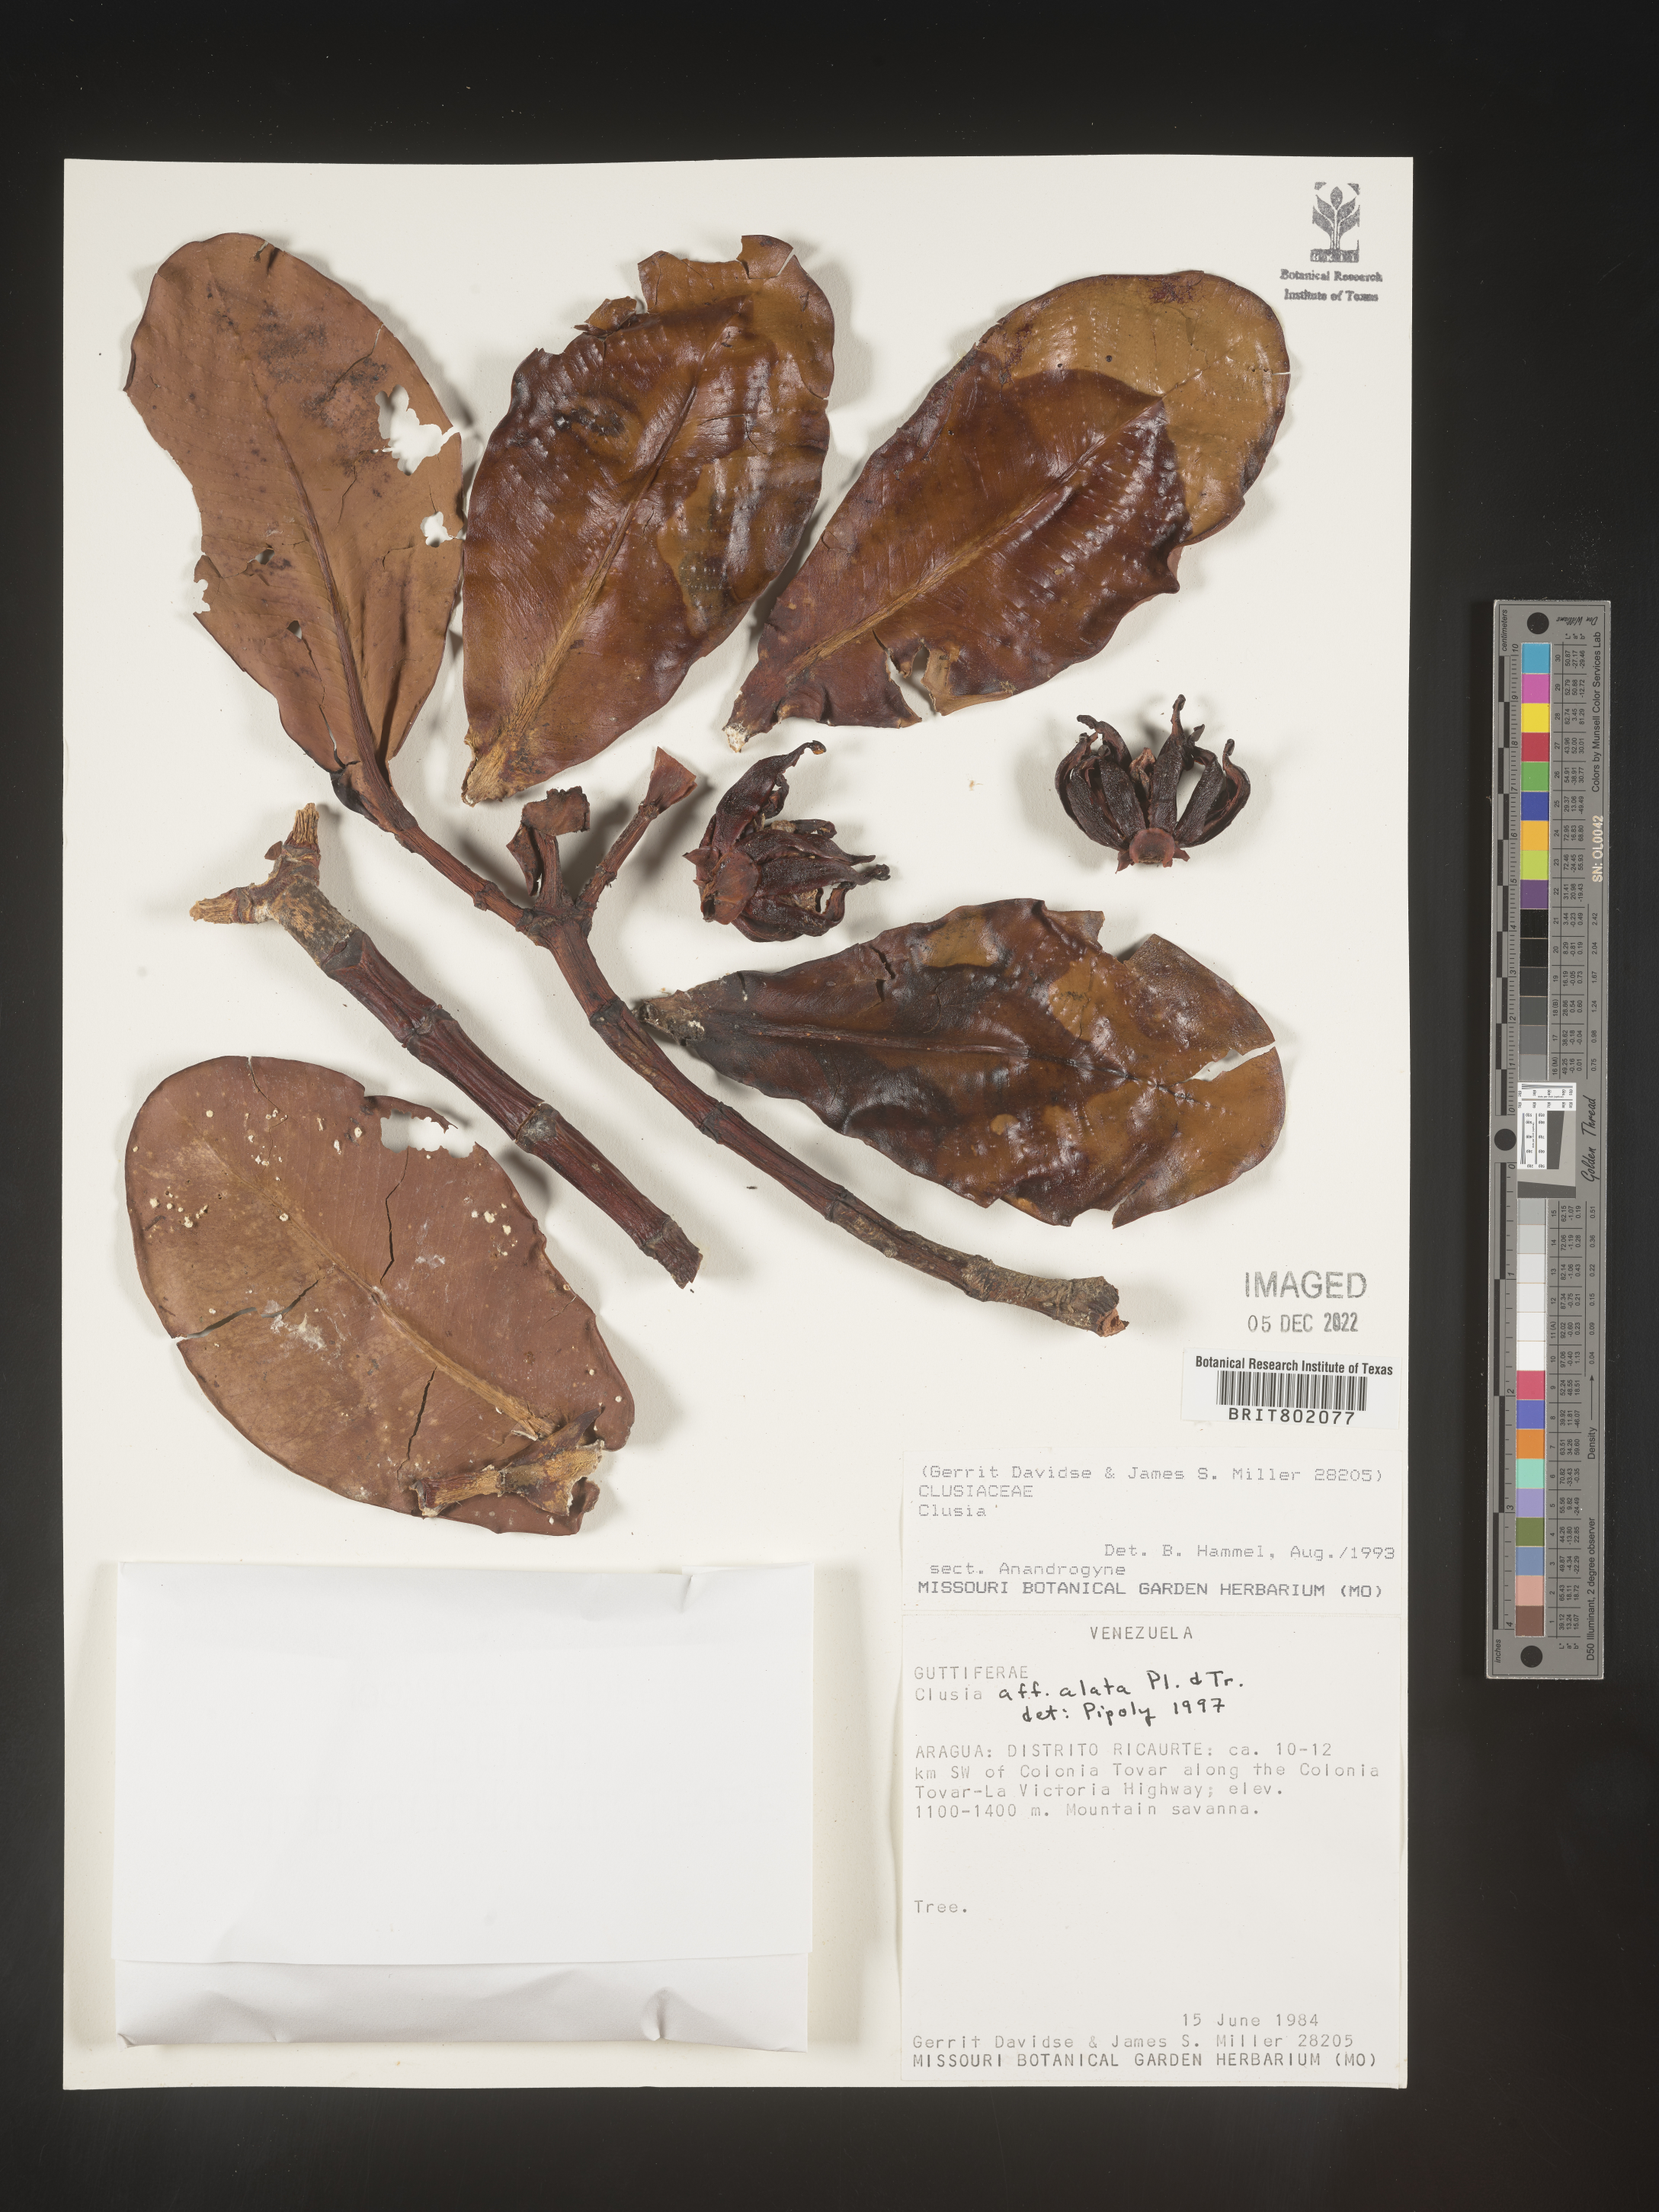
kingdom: Plantae
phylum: Tracheophyta
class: Magnoliopsida
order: Malpighiales
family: Clusiaceae
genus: Clusia
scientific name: Clusia alata
